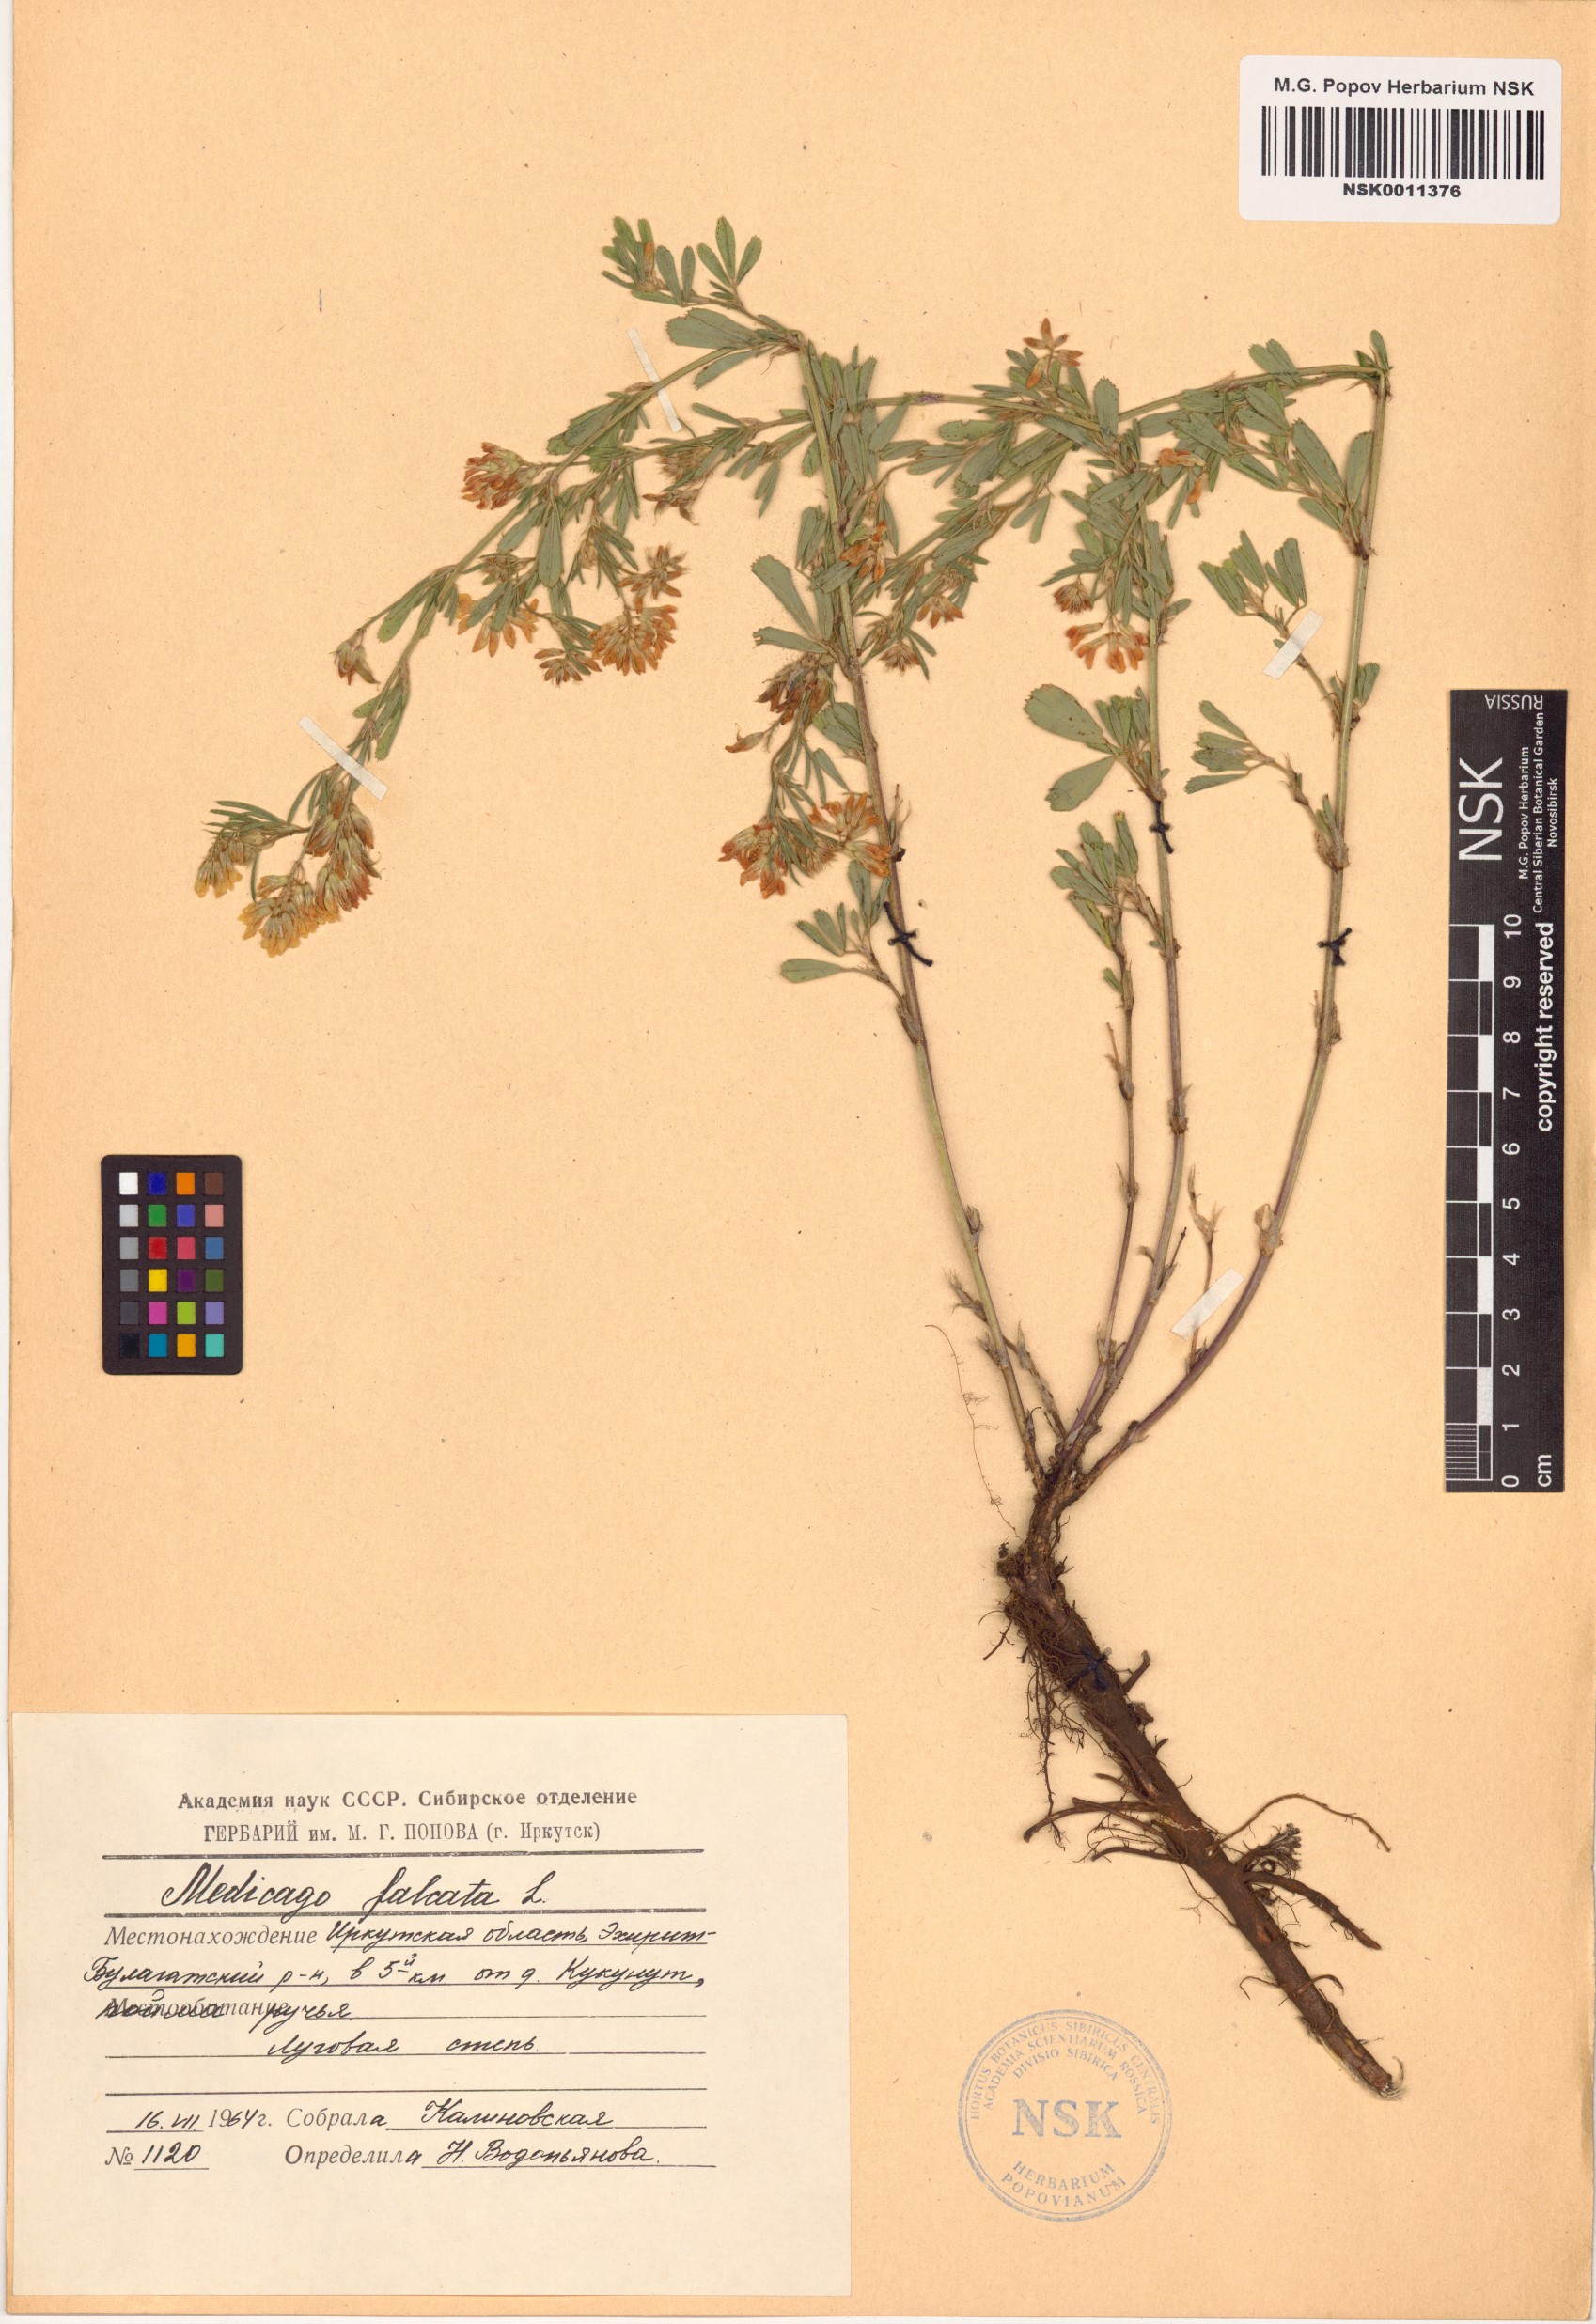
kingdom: Plantae
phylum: Tracheophyta
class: Magnoliopsida
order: Fabales
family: Fabaceae
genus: Medicago
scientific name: Medicago falcata
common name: Sickle medick
